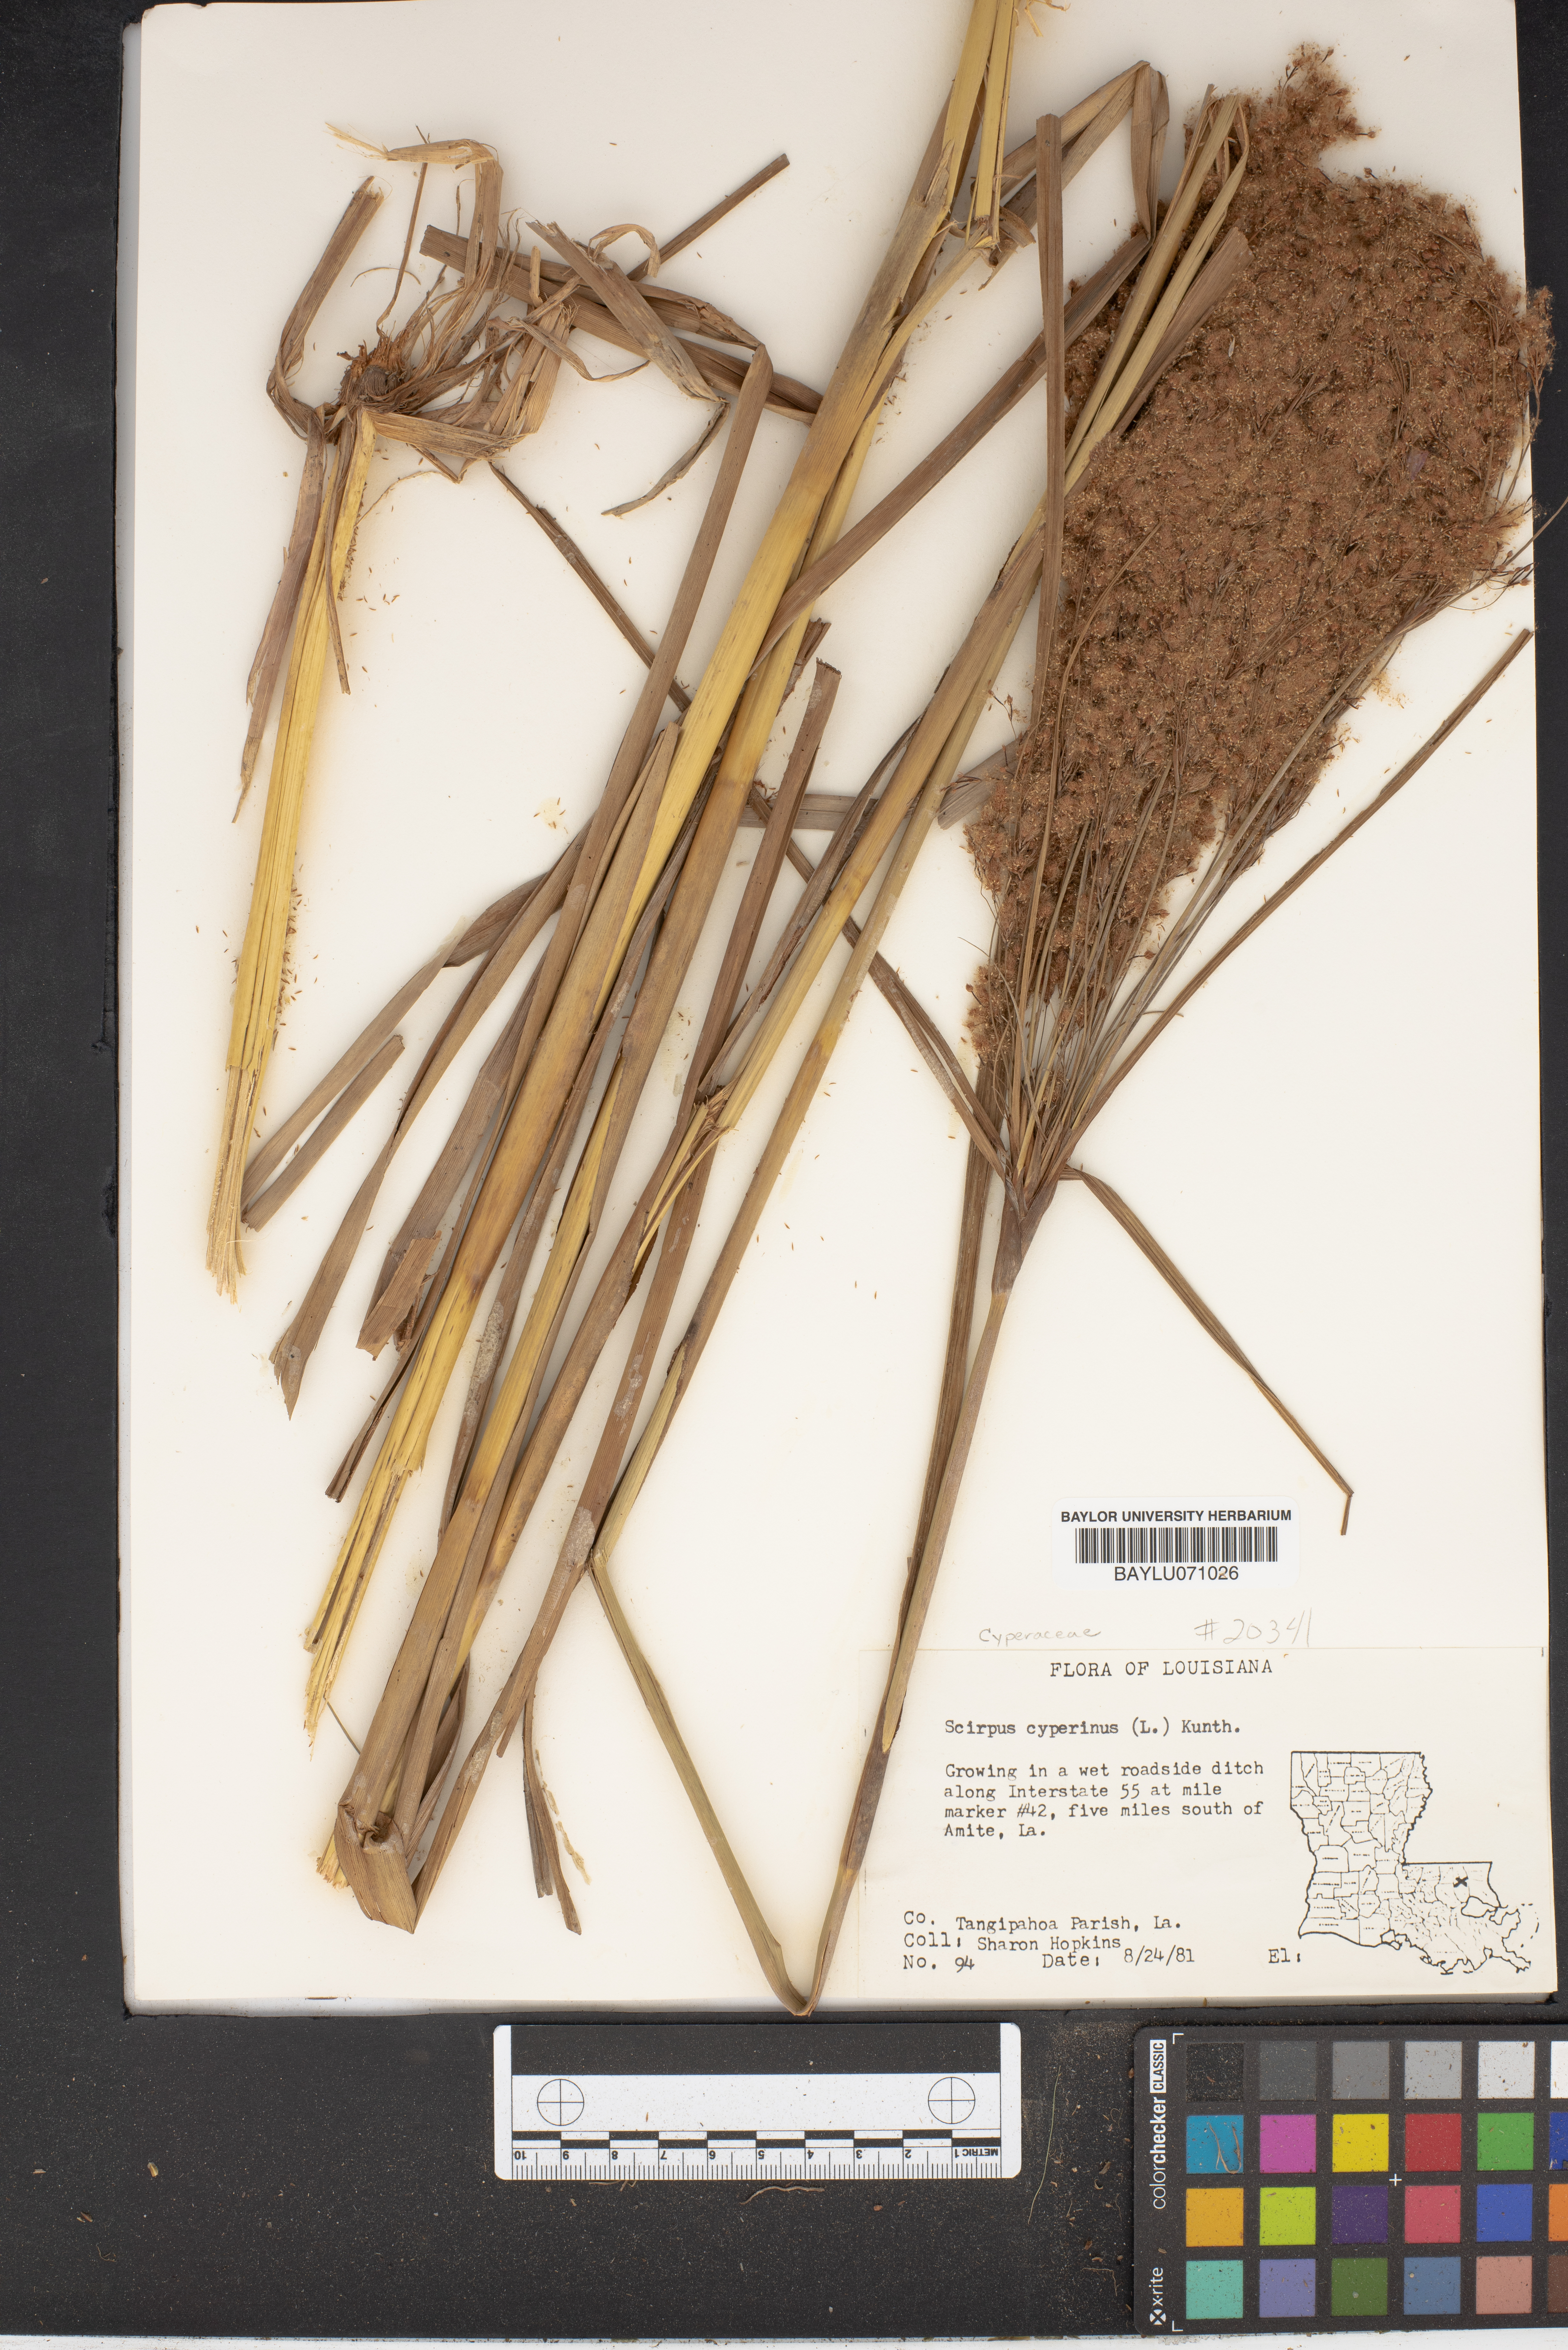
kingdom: Plantae
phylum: Tracheophyta
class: Liliopsida
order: Poales
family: Cyperaceae
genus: Scirpus
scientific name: Scirpus cyperinus
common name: Black-sheathed bulrush
